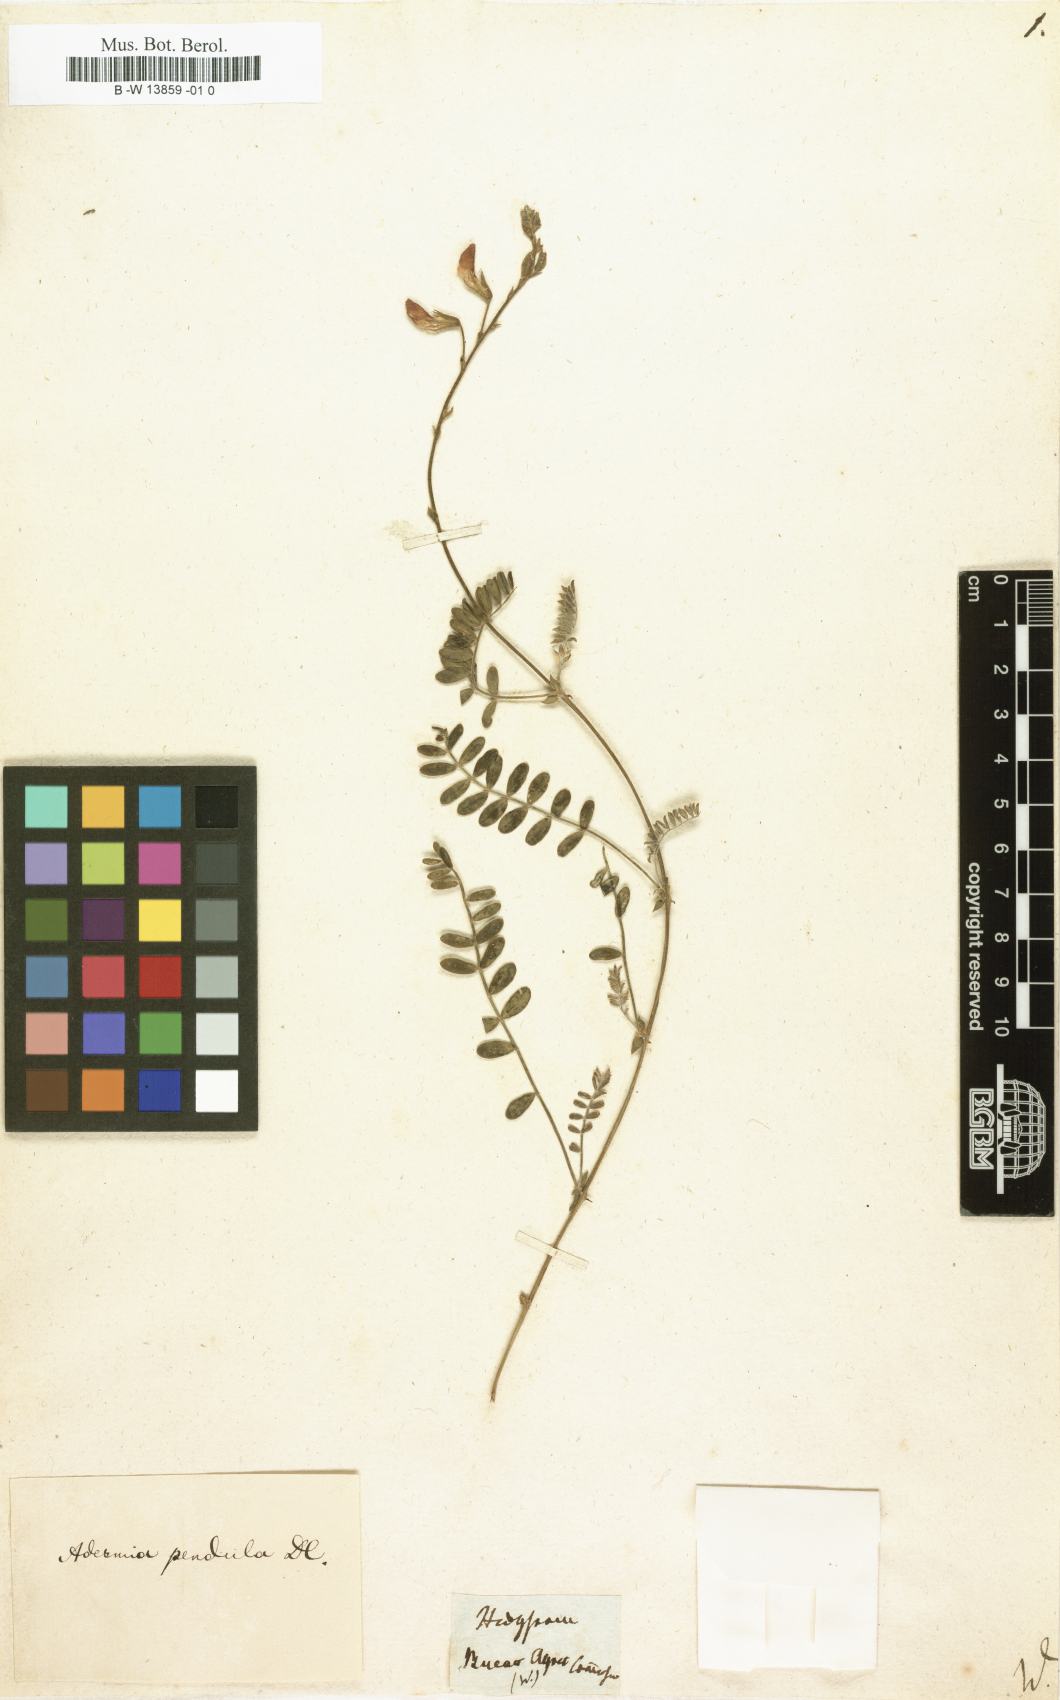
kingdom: Plantae
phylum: Tracheophyta
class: Magnoliopsida
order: Fabales
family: Fabaceae
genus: Hedysarum
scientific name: Hedysarum
